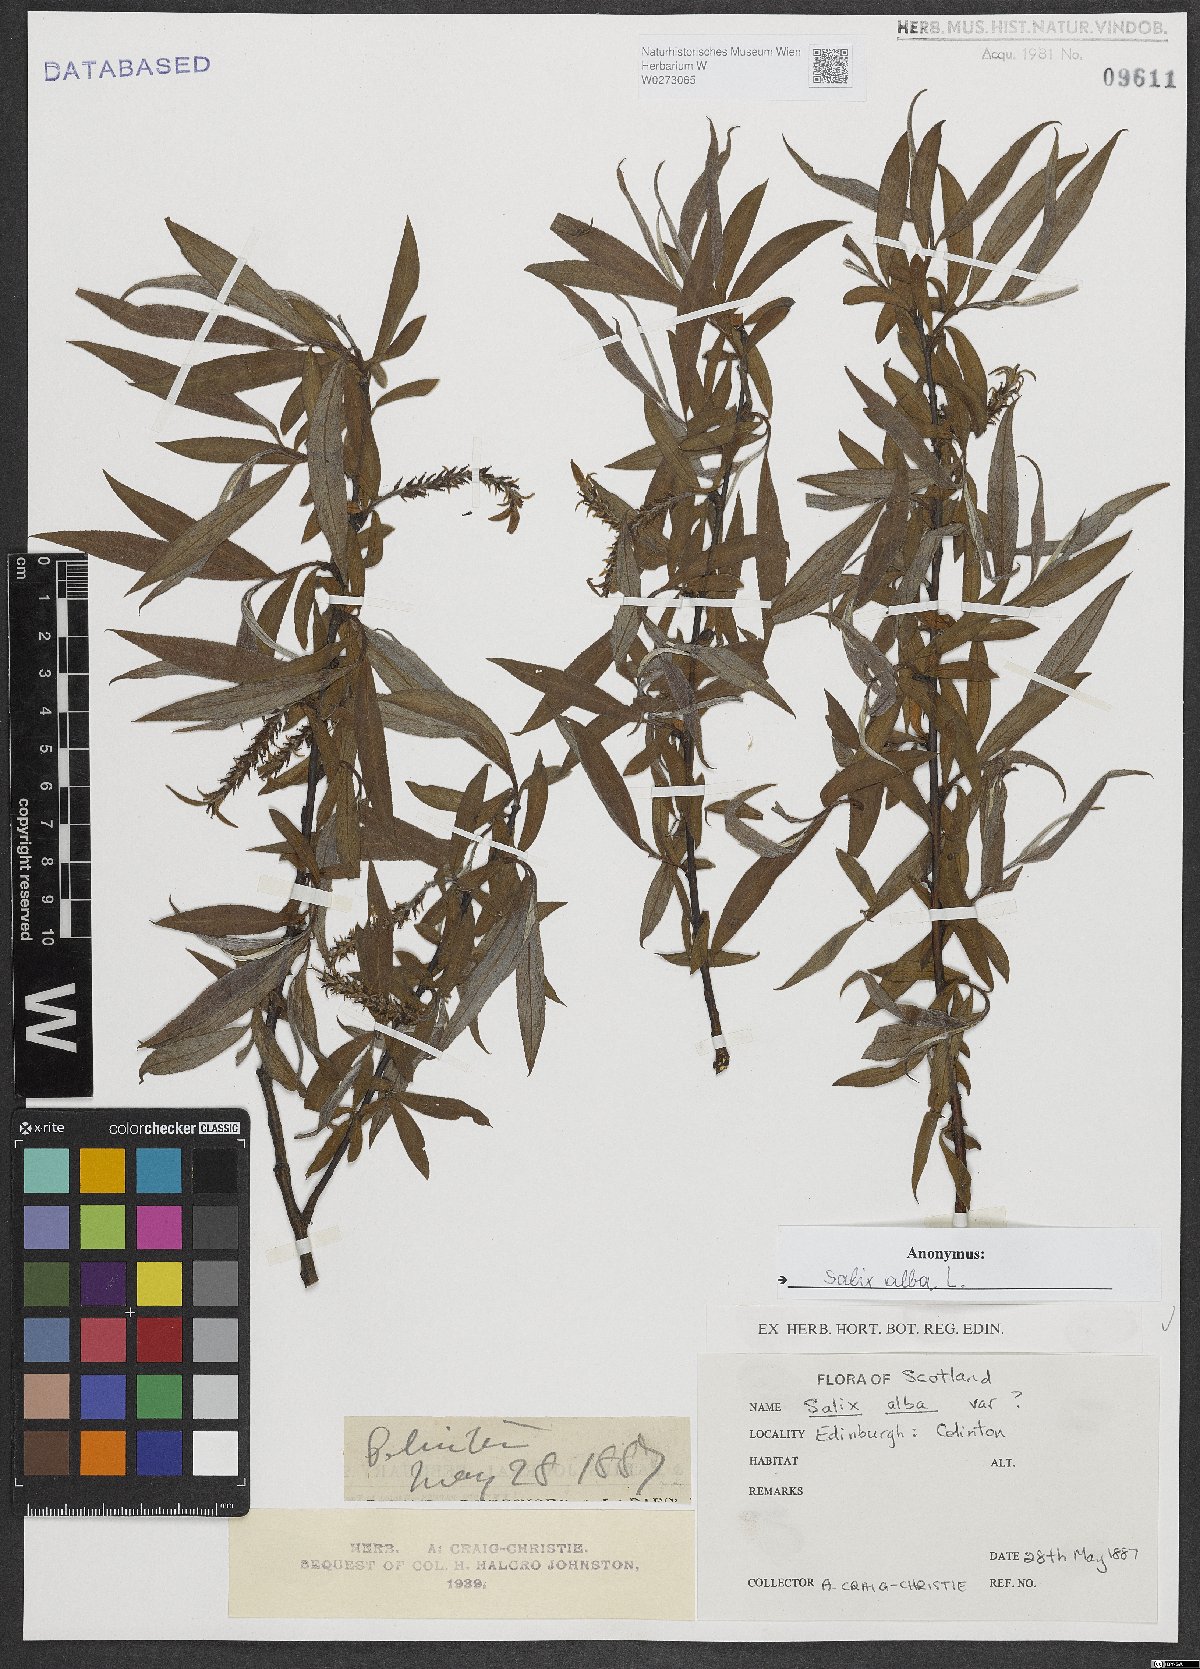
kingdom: Plantae
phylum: Tracheophyta
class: Magnoliopsida
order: Malpighiales
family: Salicaceae
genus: Salix
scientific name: Salix alba
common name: White willow
